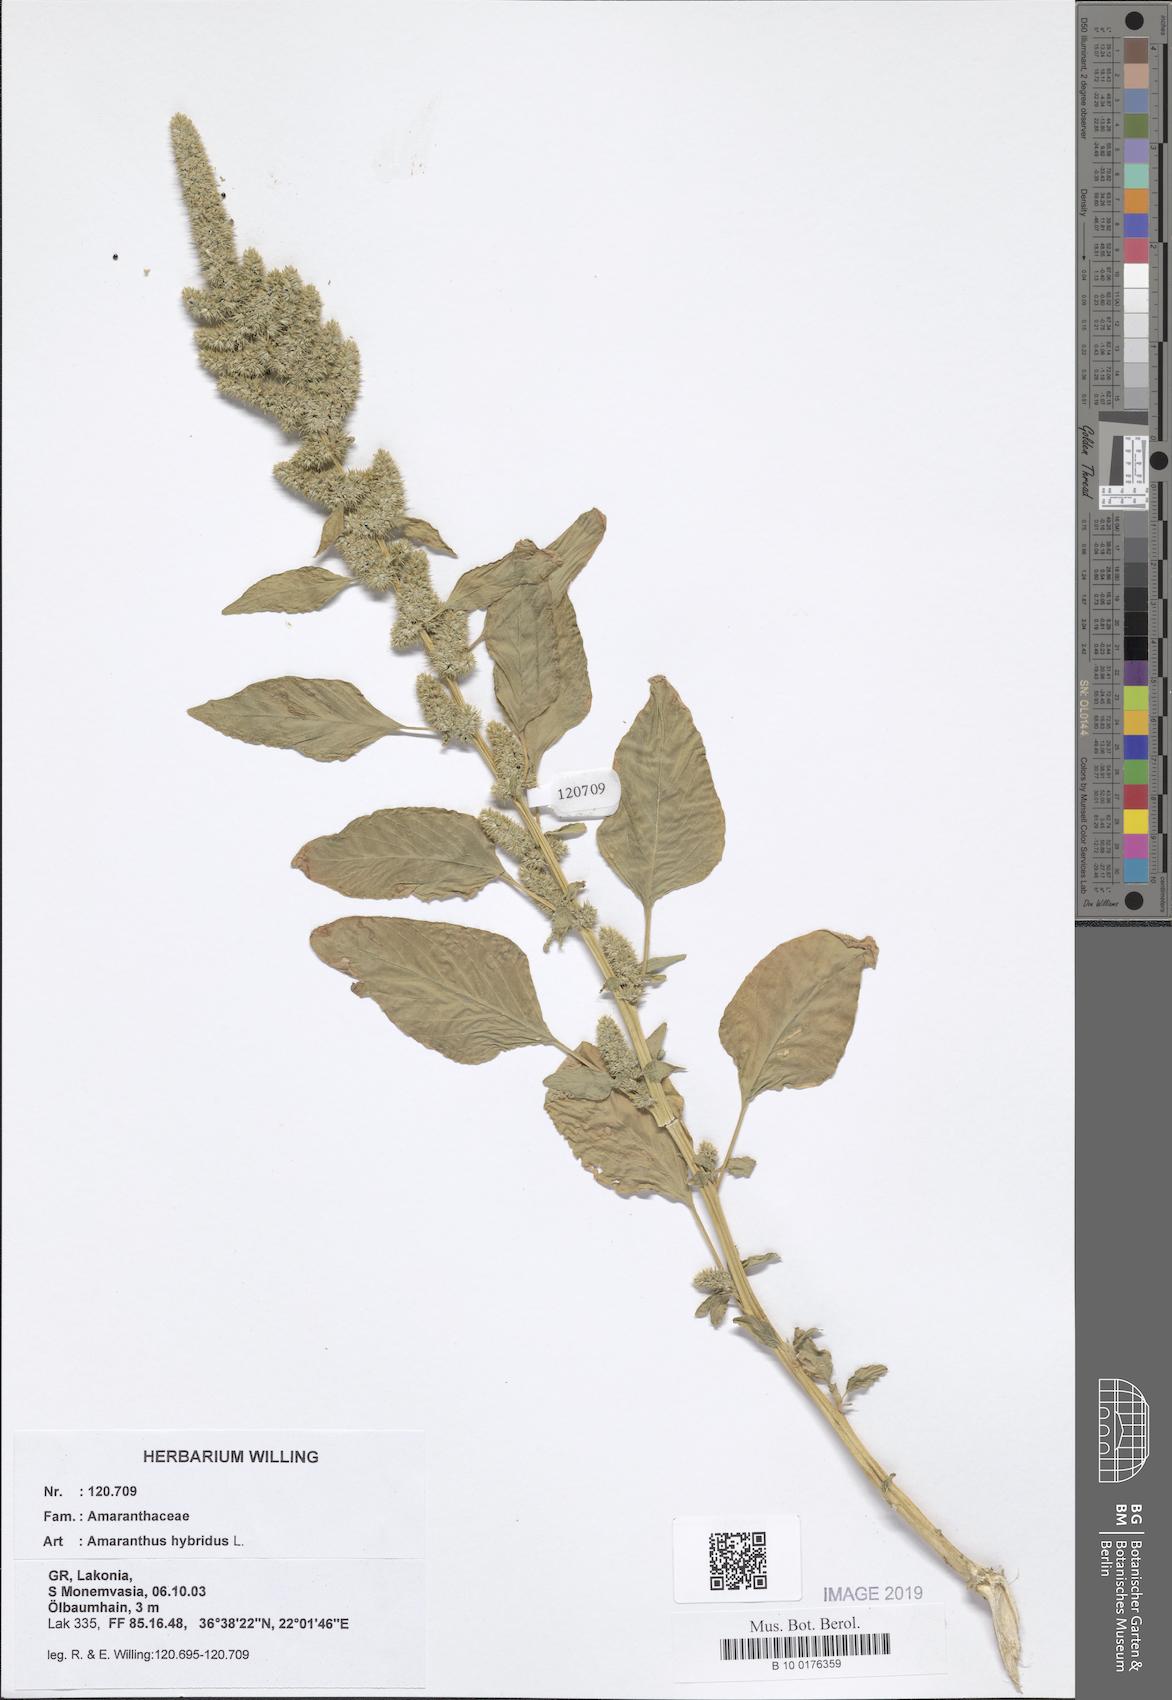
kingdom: Plantae
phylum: Tracheophyta
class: Magnoliopsida
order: Caryophyllales
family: Amaranthaceae
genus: Amaranthus
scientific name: Amaranthus hybridus
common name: Green amaranth
